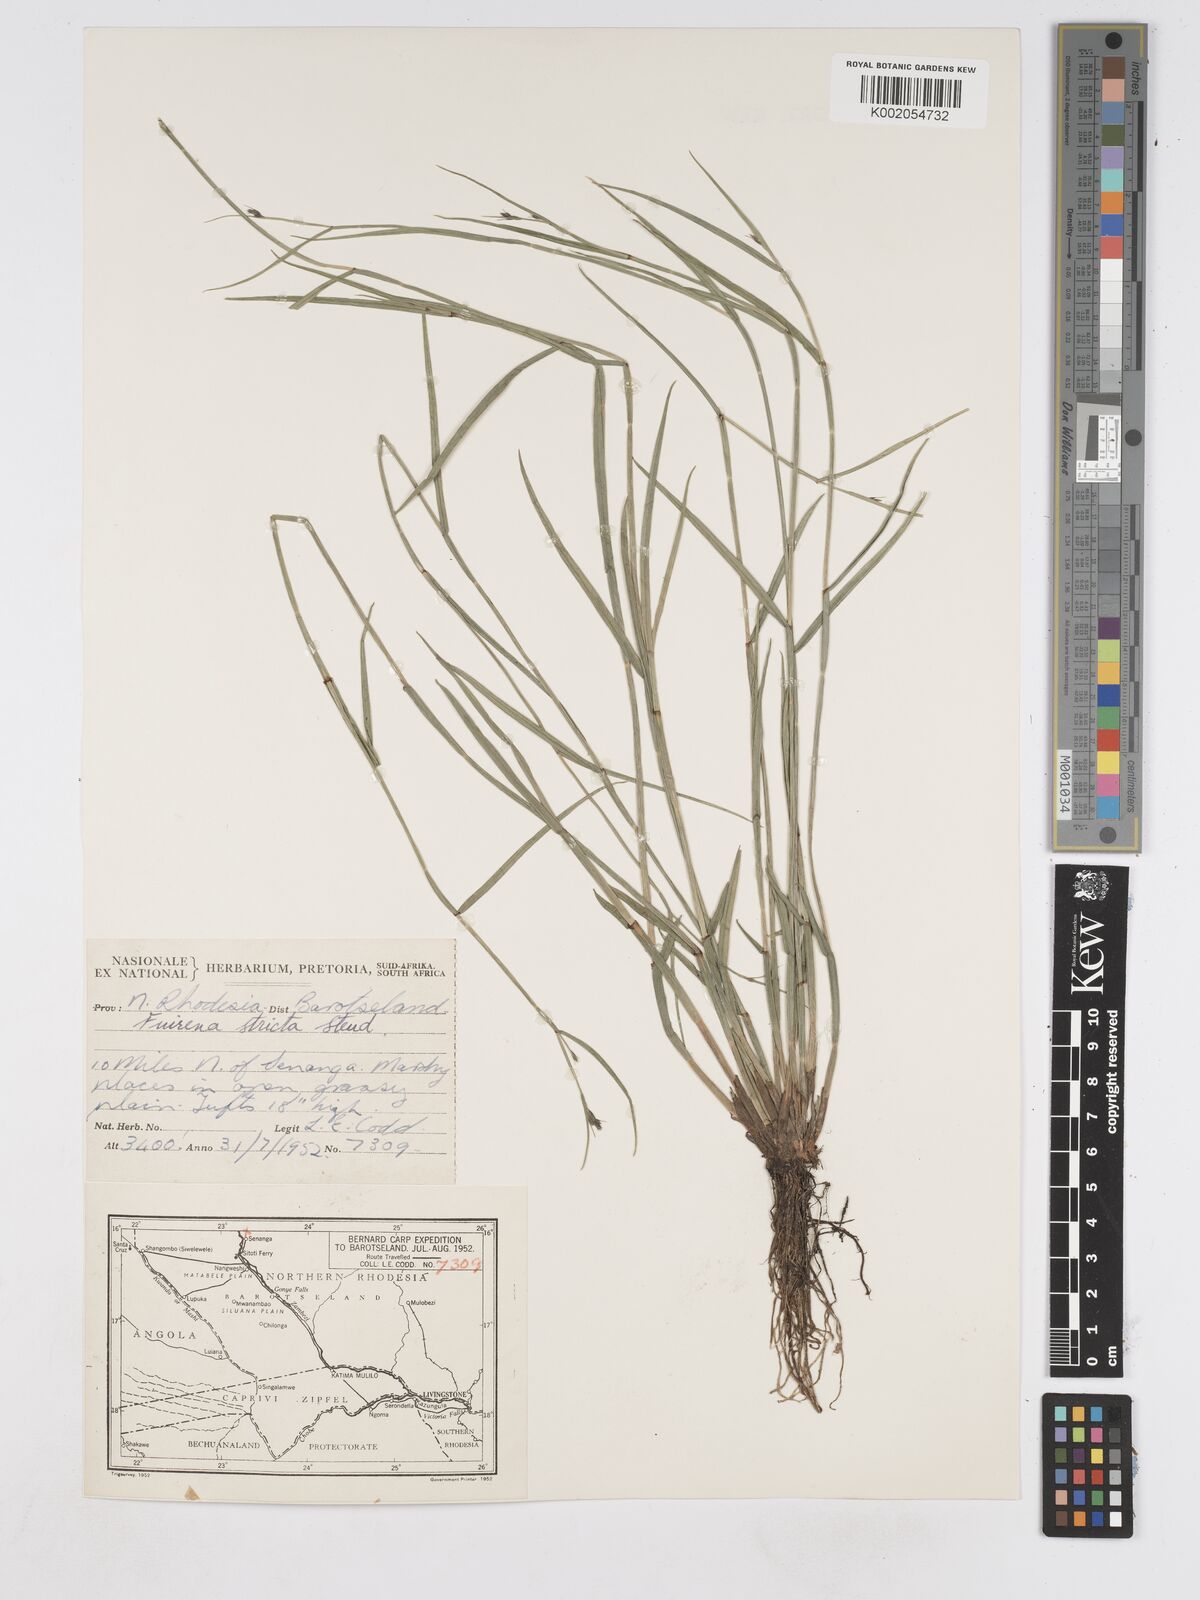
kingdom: Plantae
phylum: Tracheophyta
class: Liliopsida
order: Poales
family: Cyperaceae
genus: Fuirena
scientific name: Fuirena stricta
